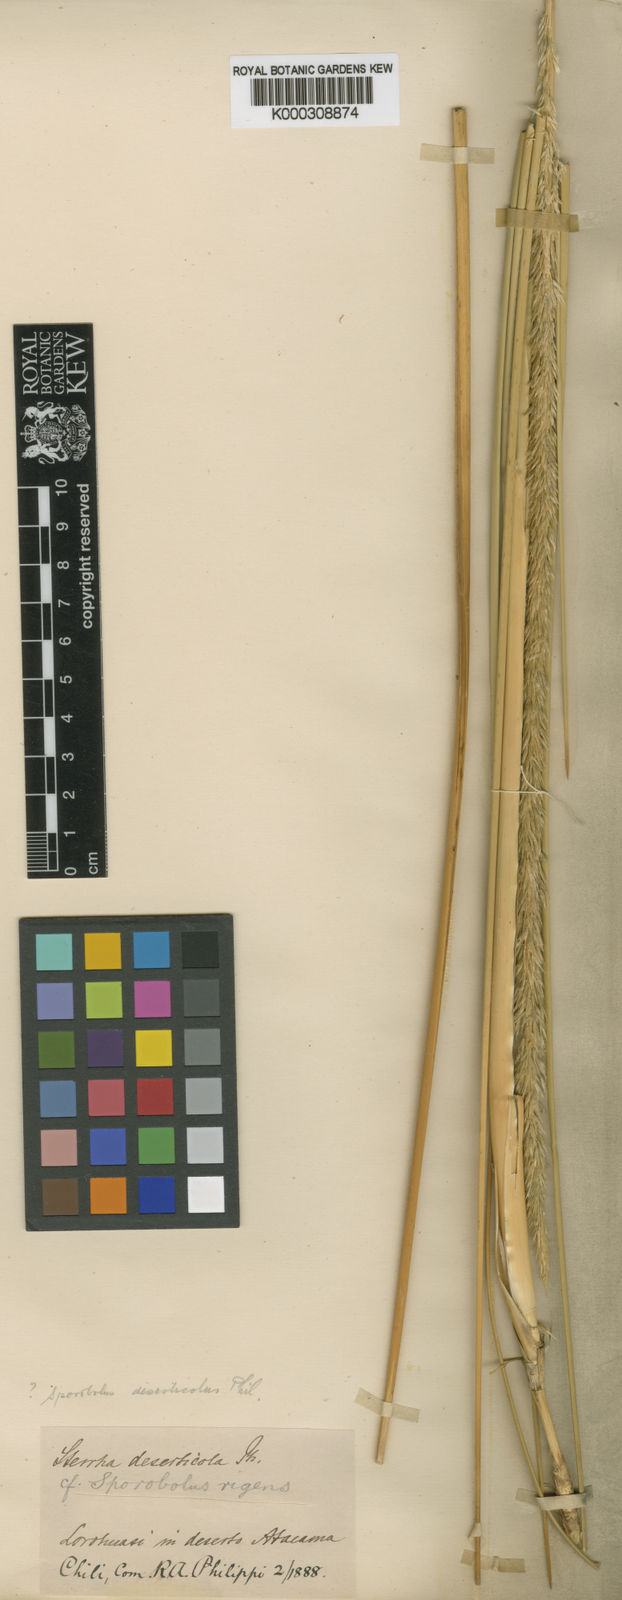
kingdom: Plantae
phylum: Tracheophyta
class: Liliopsida
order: Poales
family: Poaceae
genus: Muhlenbergia
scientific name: Muhlenbergia asperifolia
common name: Alkali muhly
